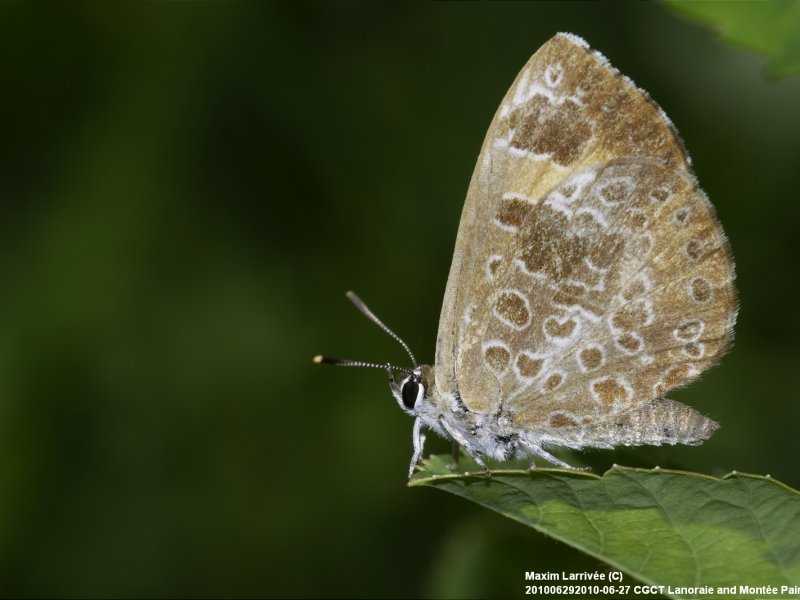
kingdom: Animalia
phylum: Arthropoda
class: Insecta
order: Lepidoptera
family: Lycaenidae
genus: Feniseca
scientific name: Feniseca tarquinius
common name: Harvester
